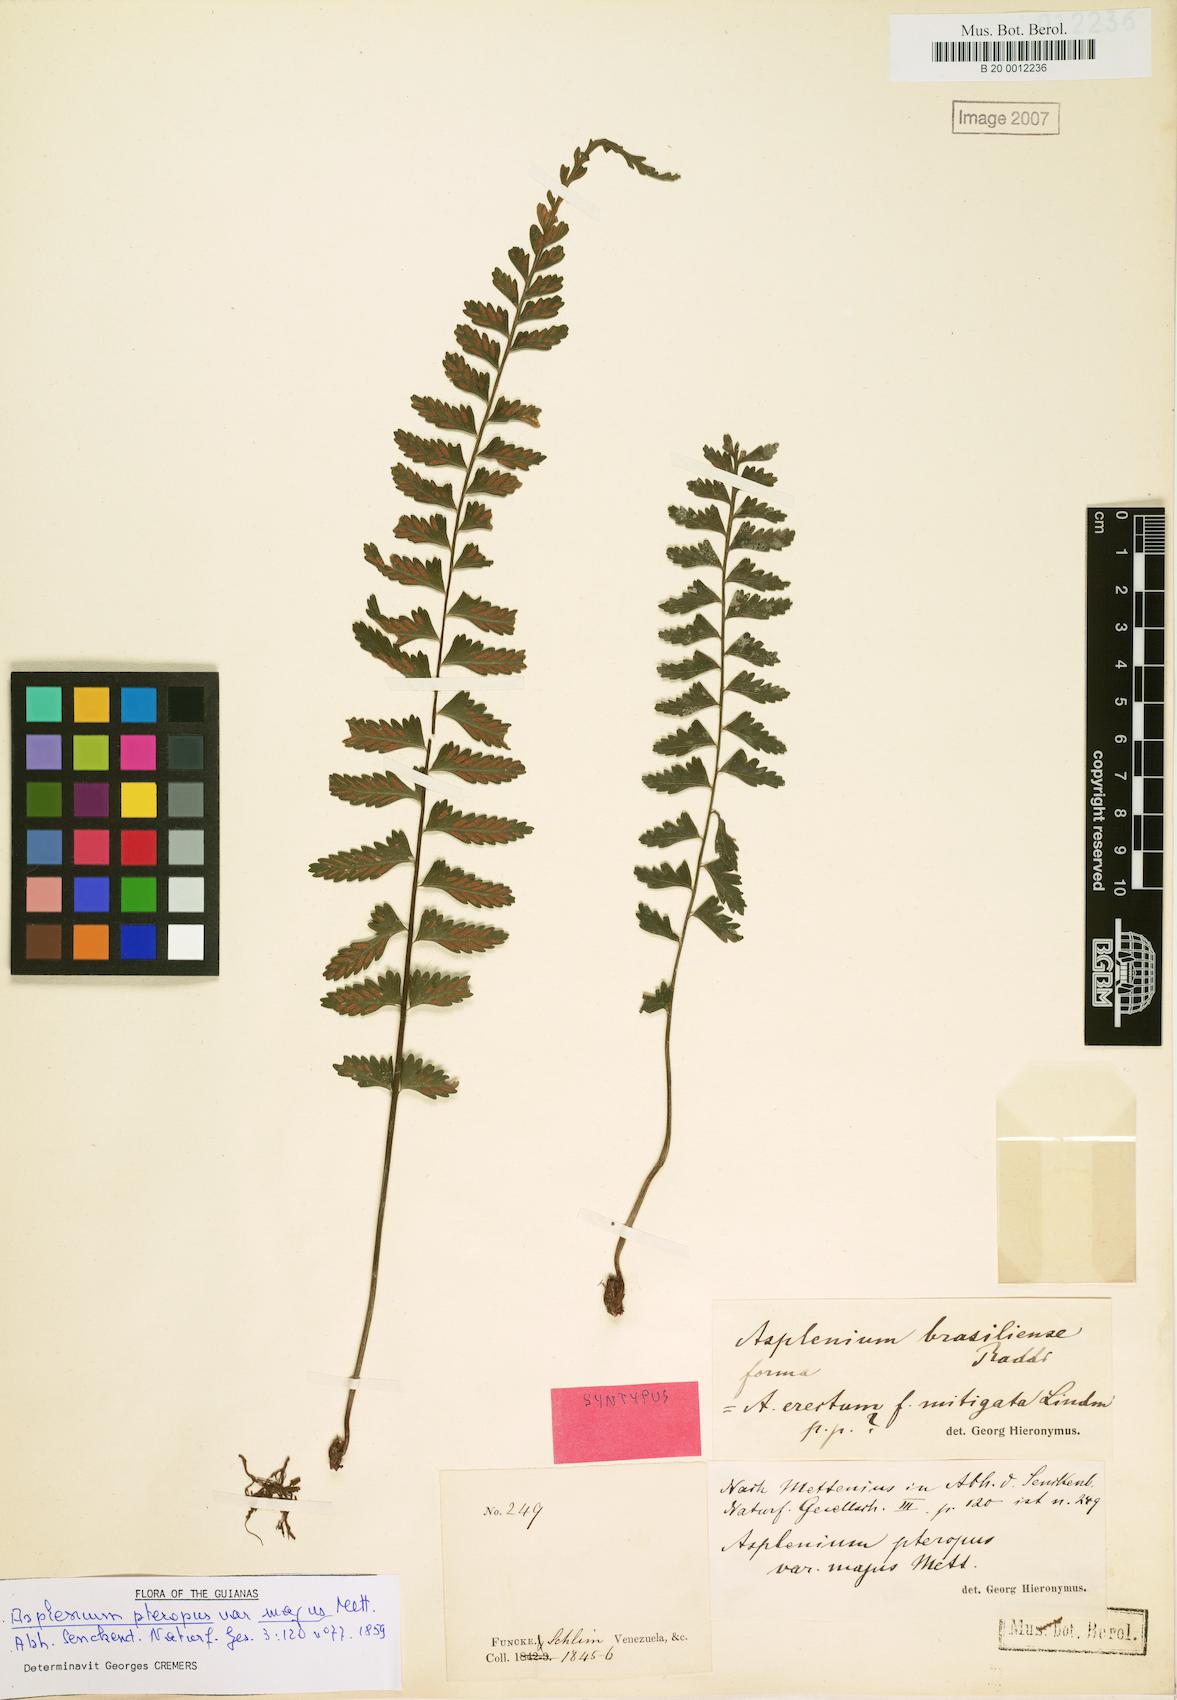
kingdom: Plantae
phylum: Tracheophyta
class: Polypodiopsida
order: Polypodiales
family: Aspleniaceae
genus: Asplenium
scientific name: Asplenium raddianum
